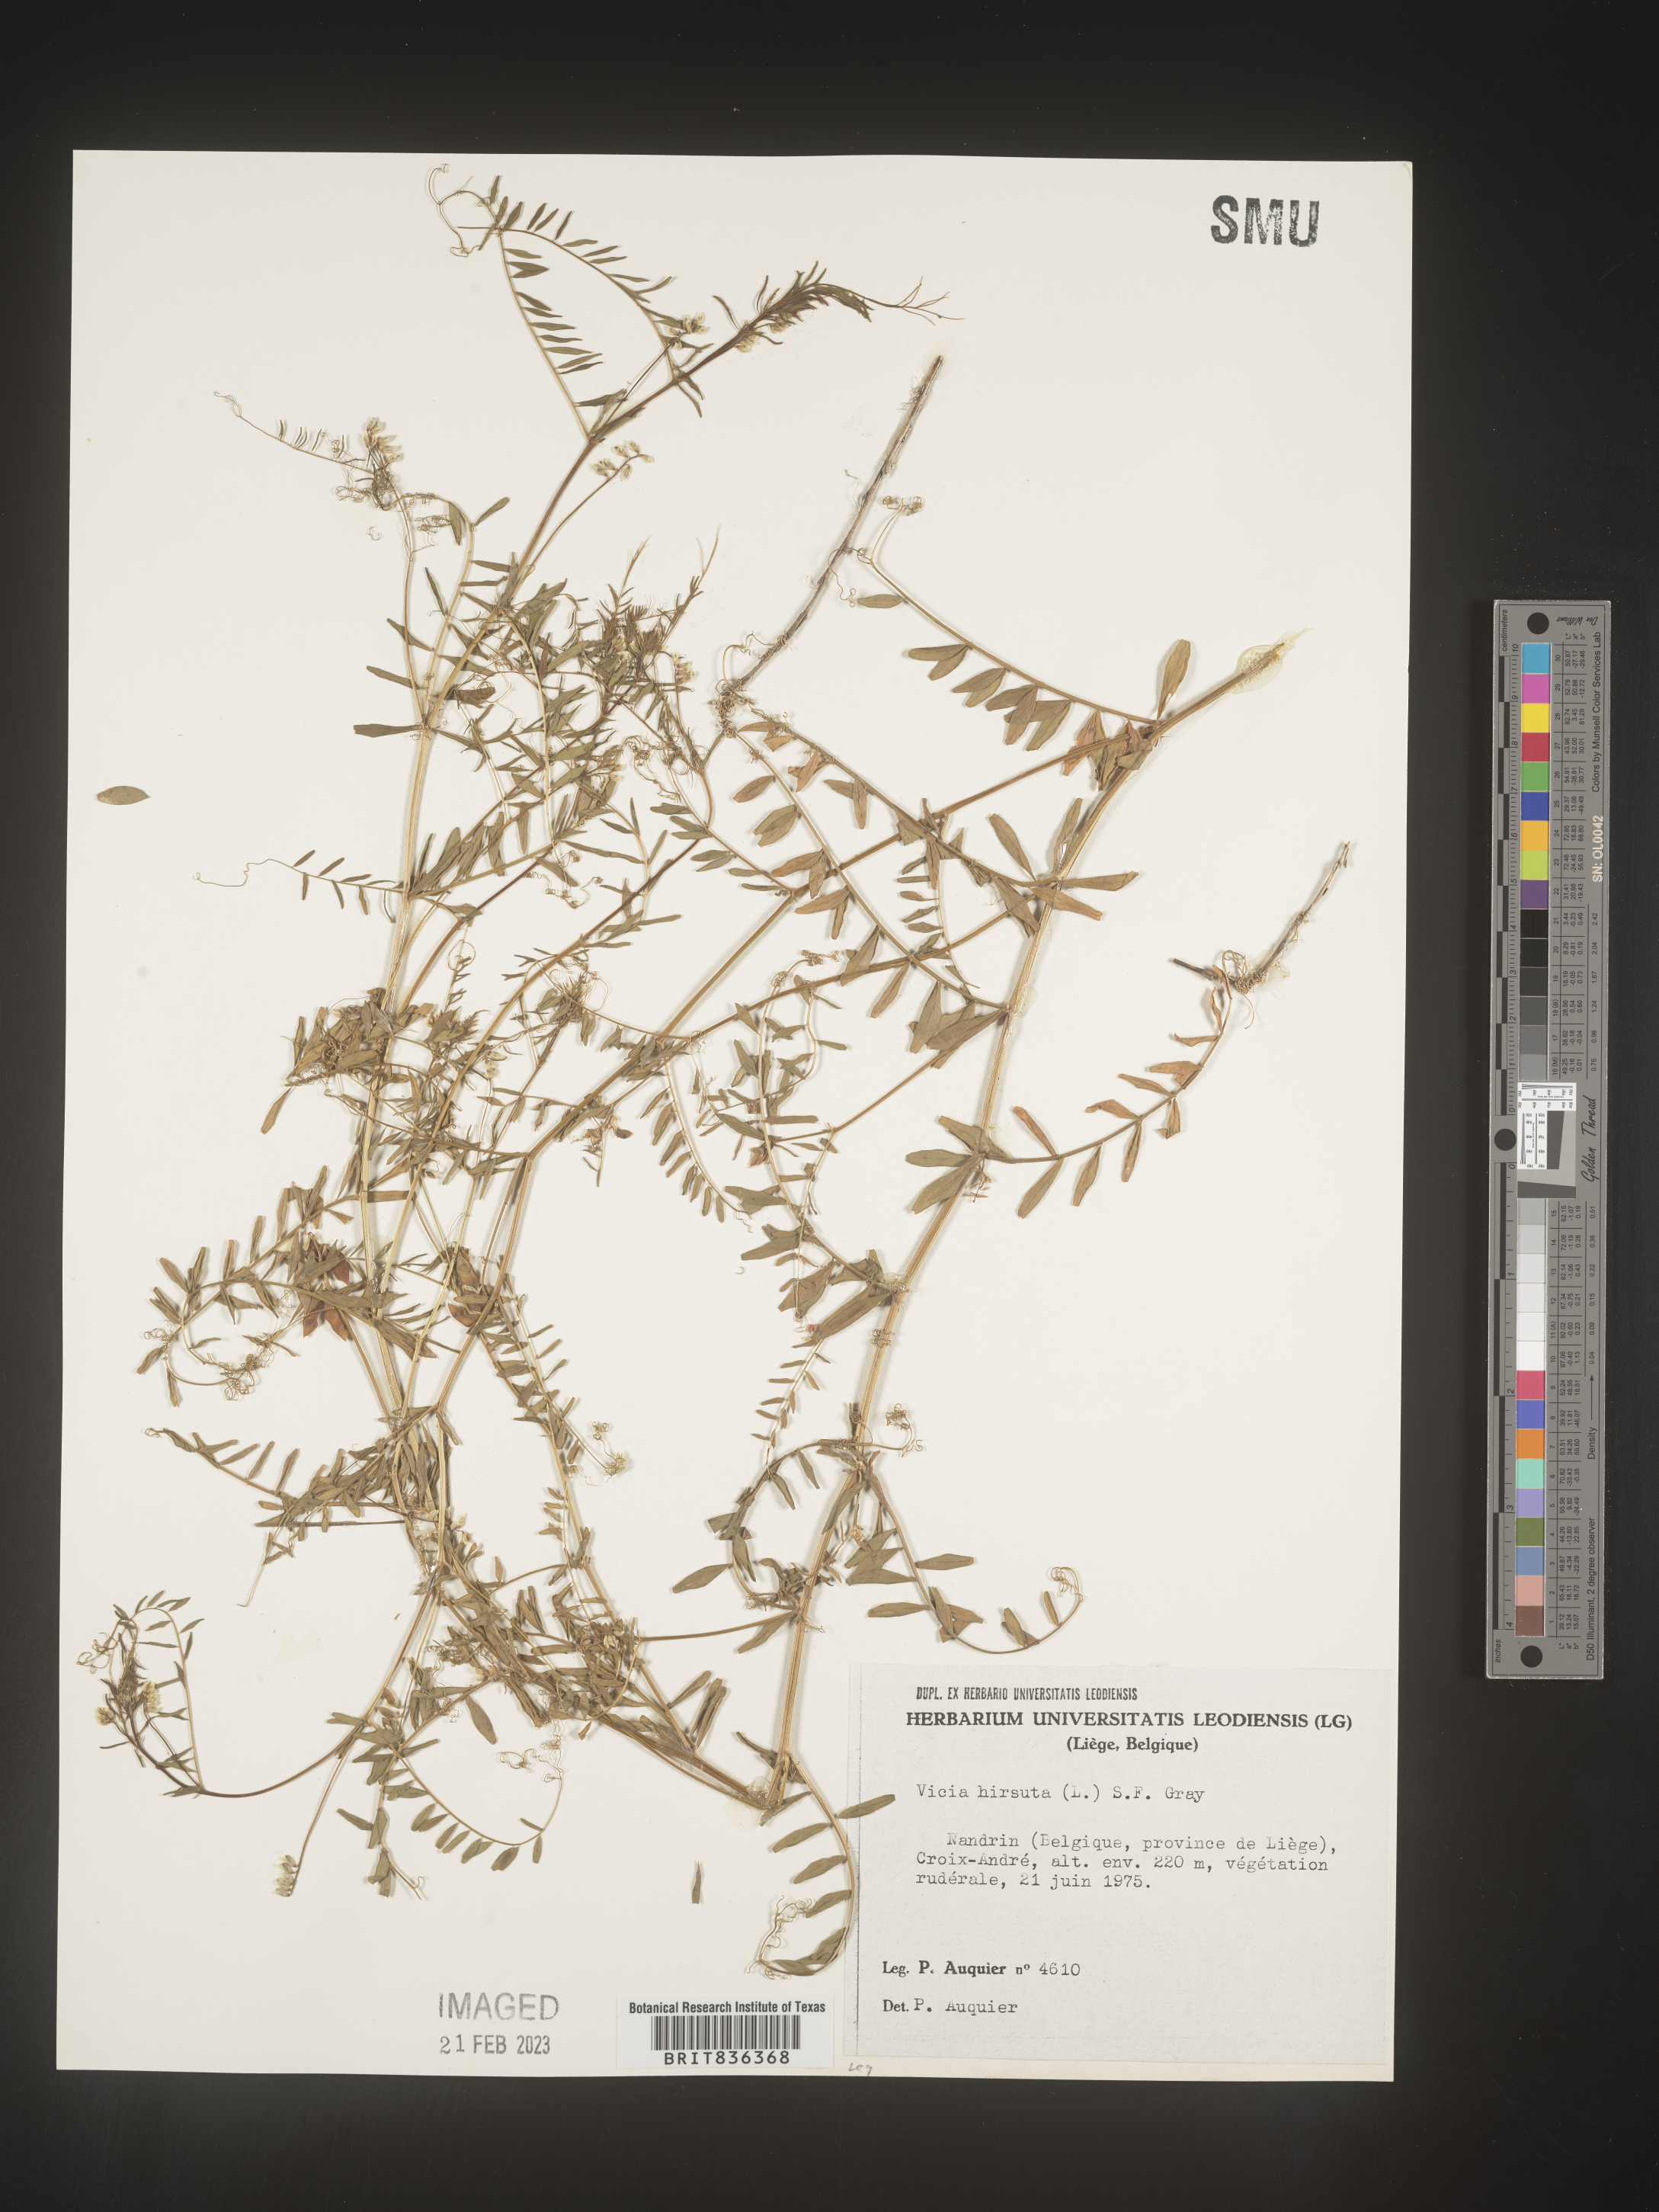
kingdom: Plantae
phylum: Tracheophyta
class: Magnoliopsida
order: Fabales
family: Fabaceae
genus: Vicia
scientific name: Vicia
